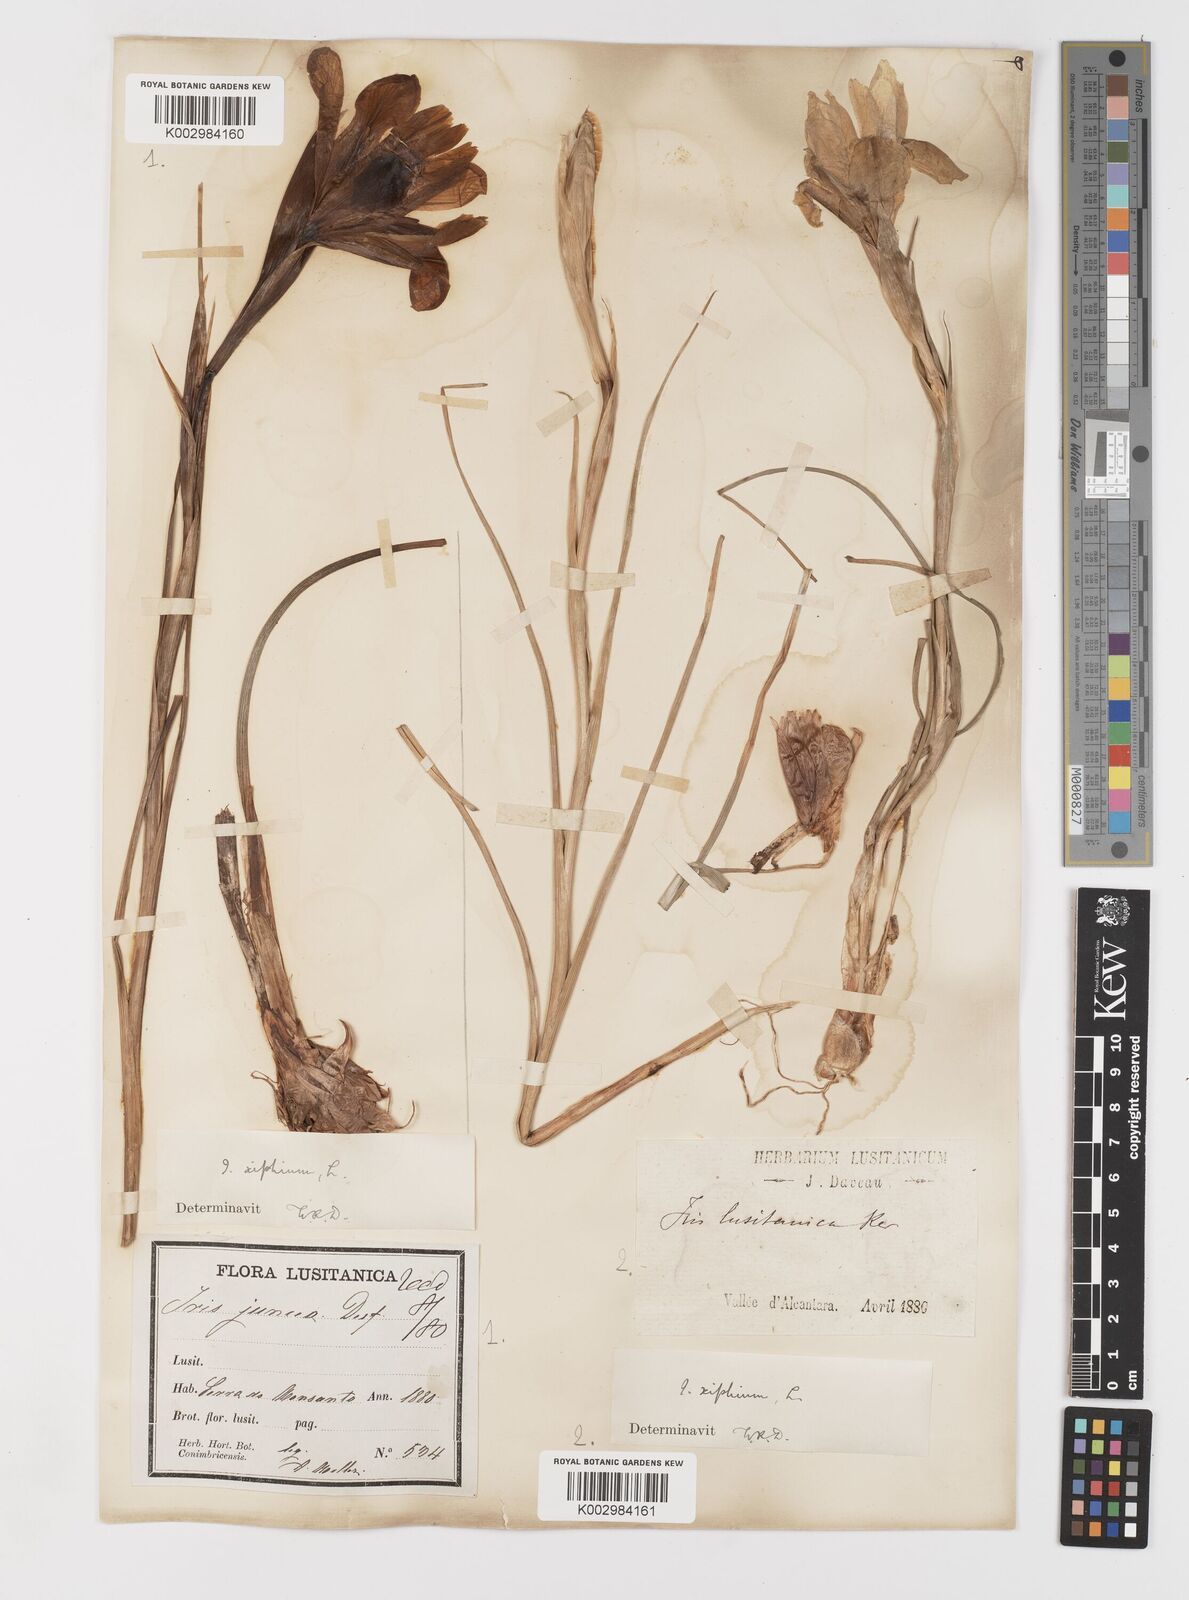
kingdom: Plantae
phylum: Tracheophyta
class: Liliopsida
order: Asparagales
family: Iridaceae
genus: Iris
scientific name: Iris xiphium
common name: Spanish iris
